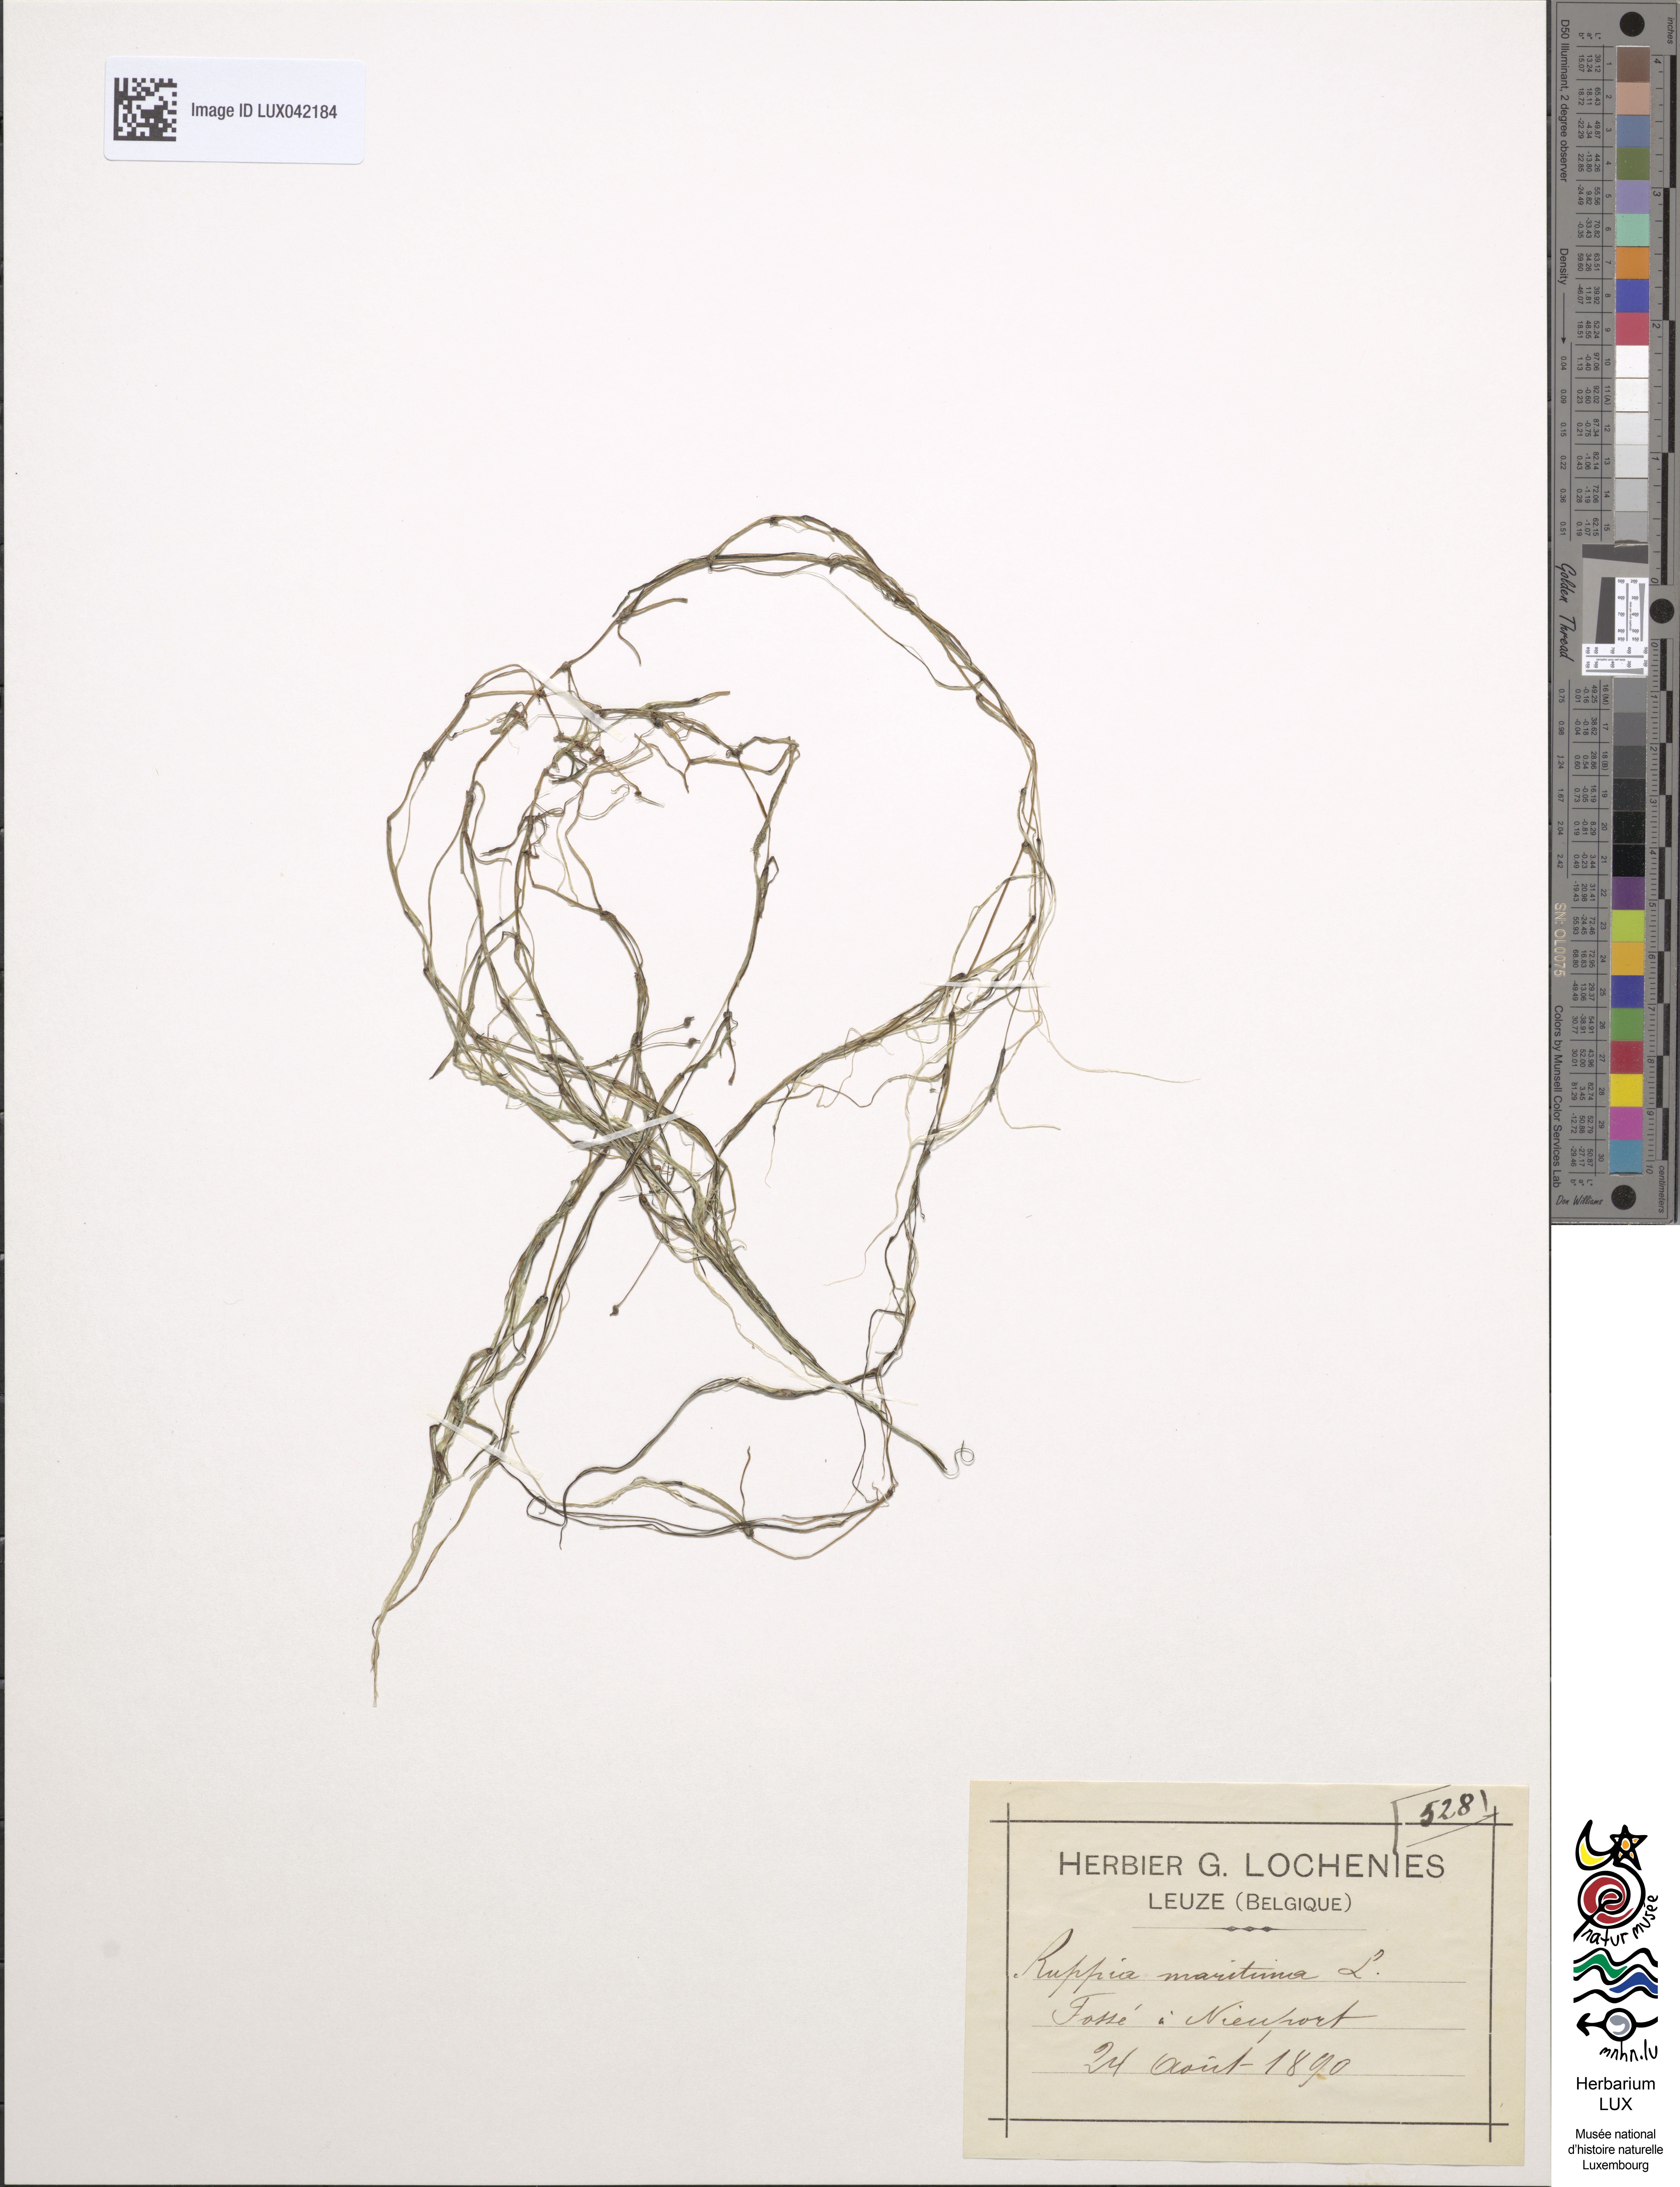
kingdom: Plantae
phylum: Tracheophyta
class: Liliopsida
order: Alismatales
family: Ruppiaceae
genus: Ruppia
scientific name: Ruppia maritima
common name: Beaked tasselweed
